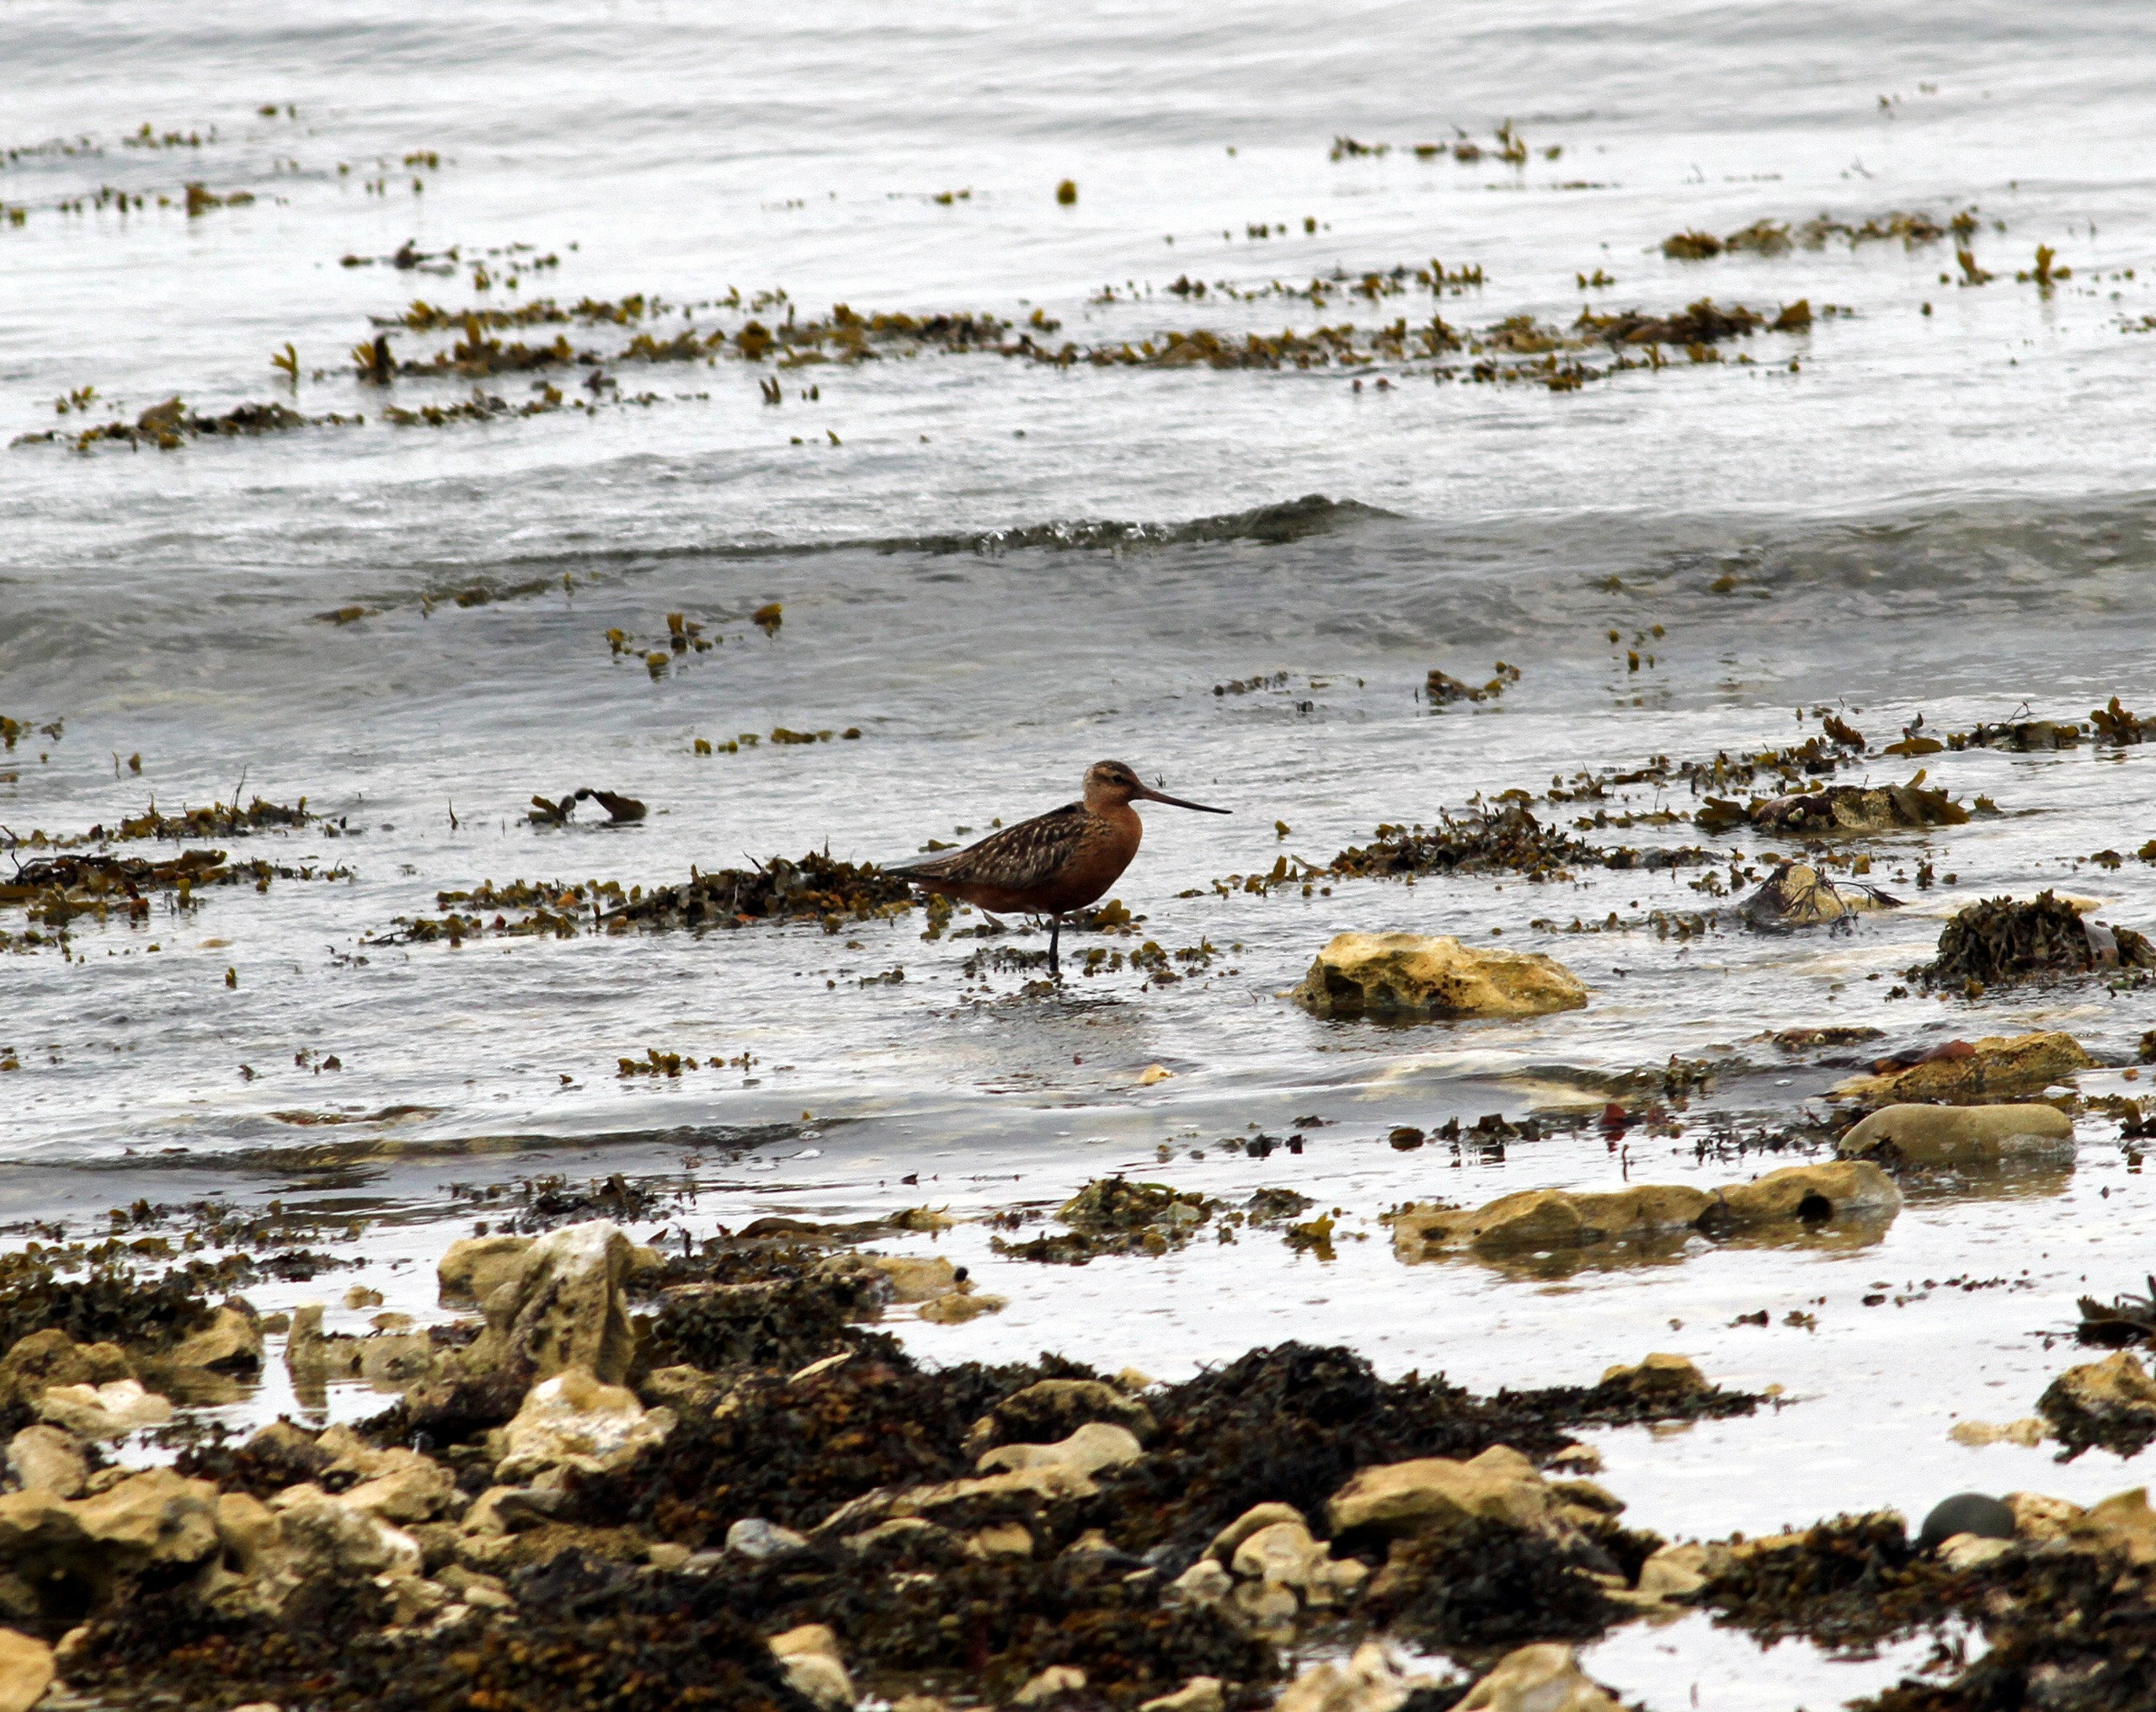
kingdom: Animalia
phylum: Chordata
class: Aves
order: Charadriiformes
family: Scolopacidae
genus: Limosa
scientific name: Limosa lapponica
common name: Lille kobbersneppe
